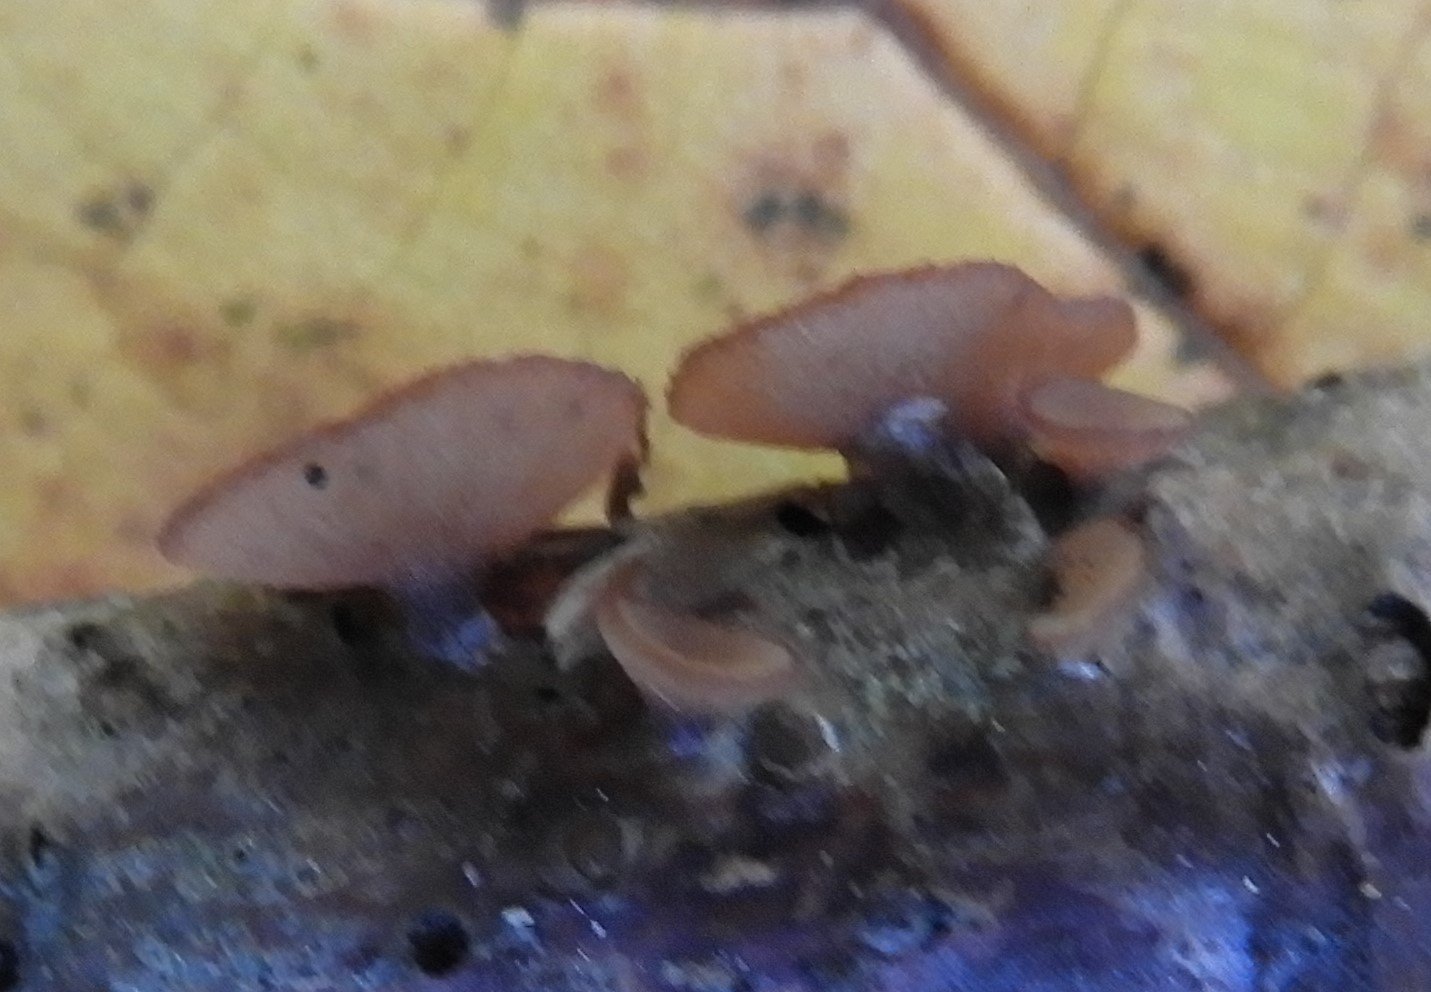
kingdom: Fungi
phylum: Ascomycota
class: Leotiomycetes
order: Helotiales
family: Rutstroemiaceae
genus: Rutstroemia
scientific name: Rutstroemia
